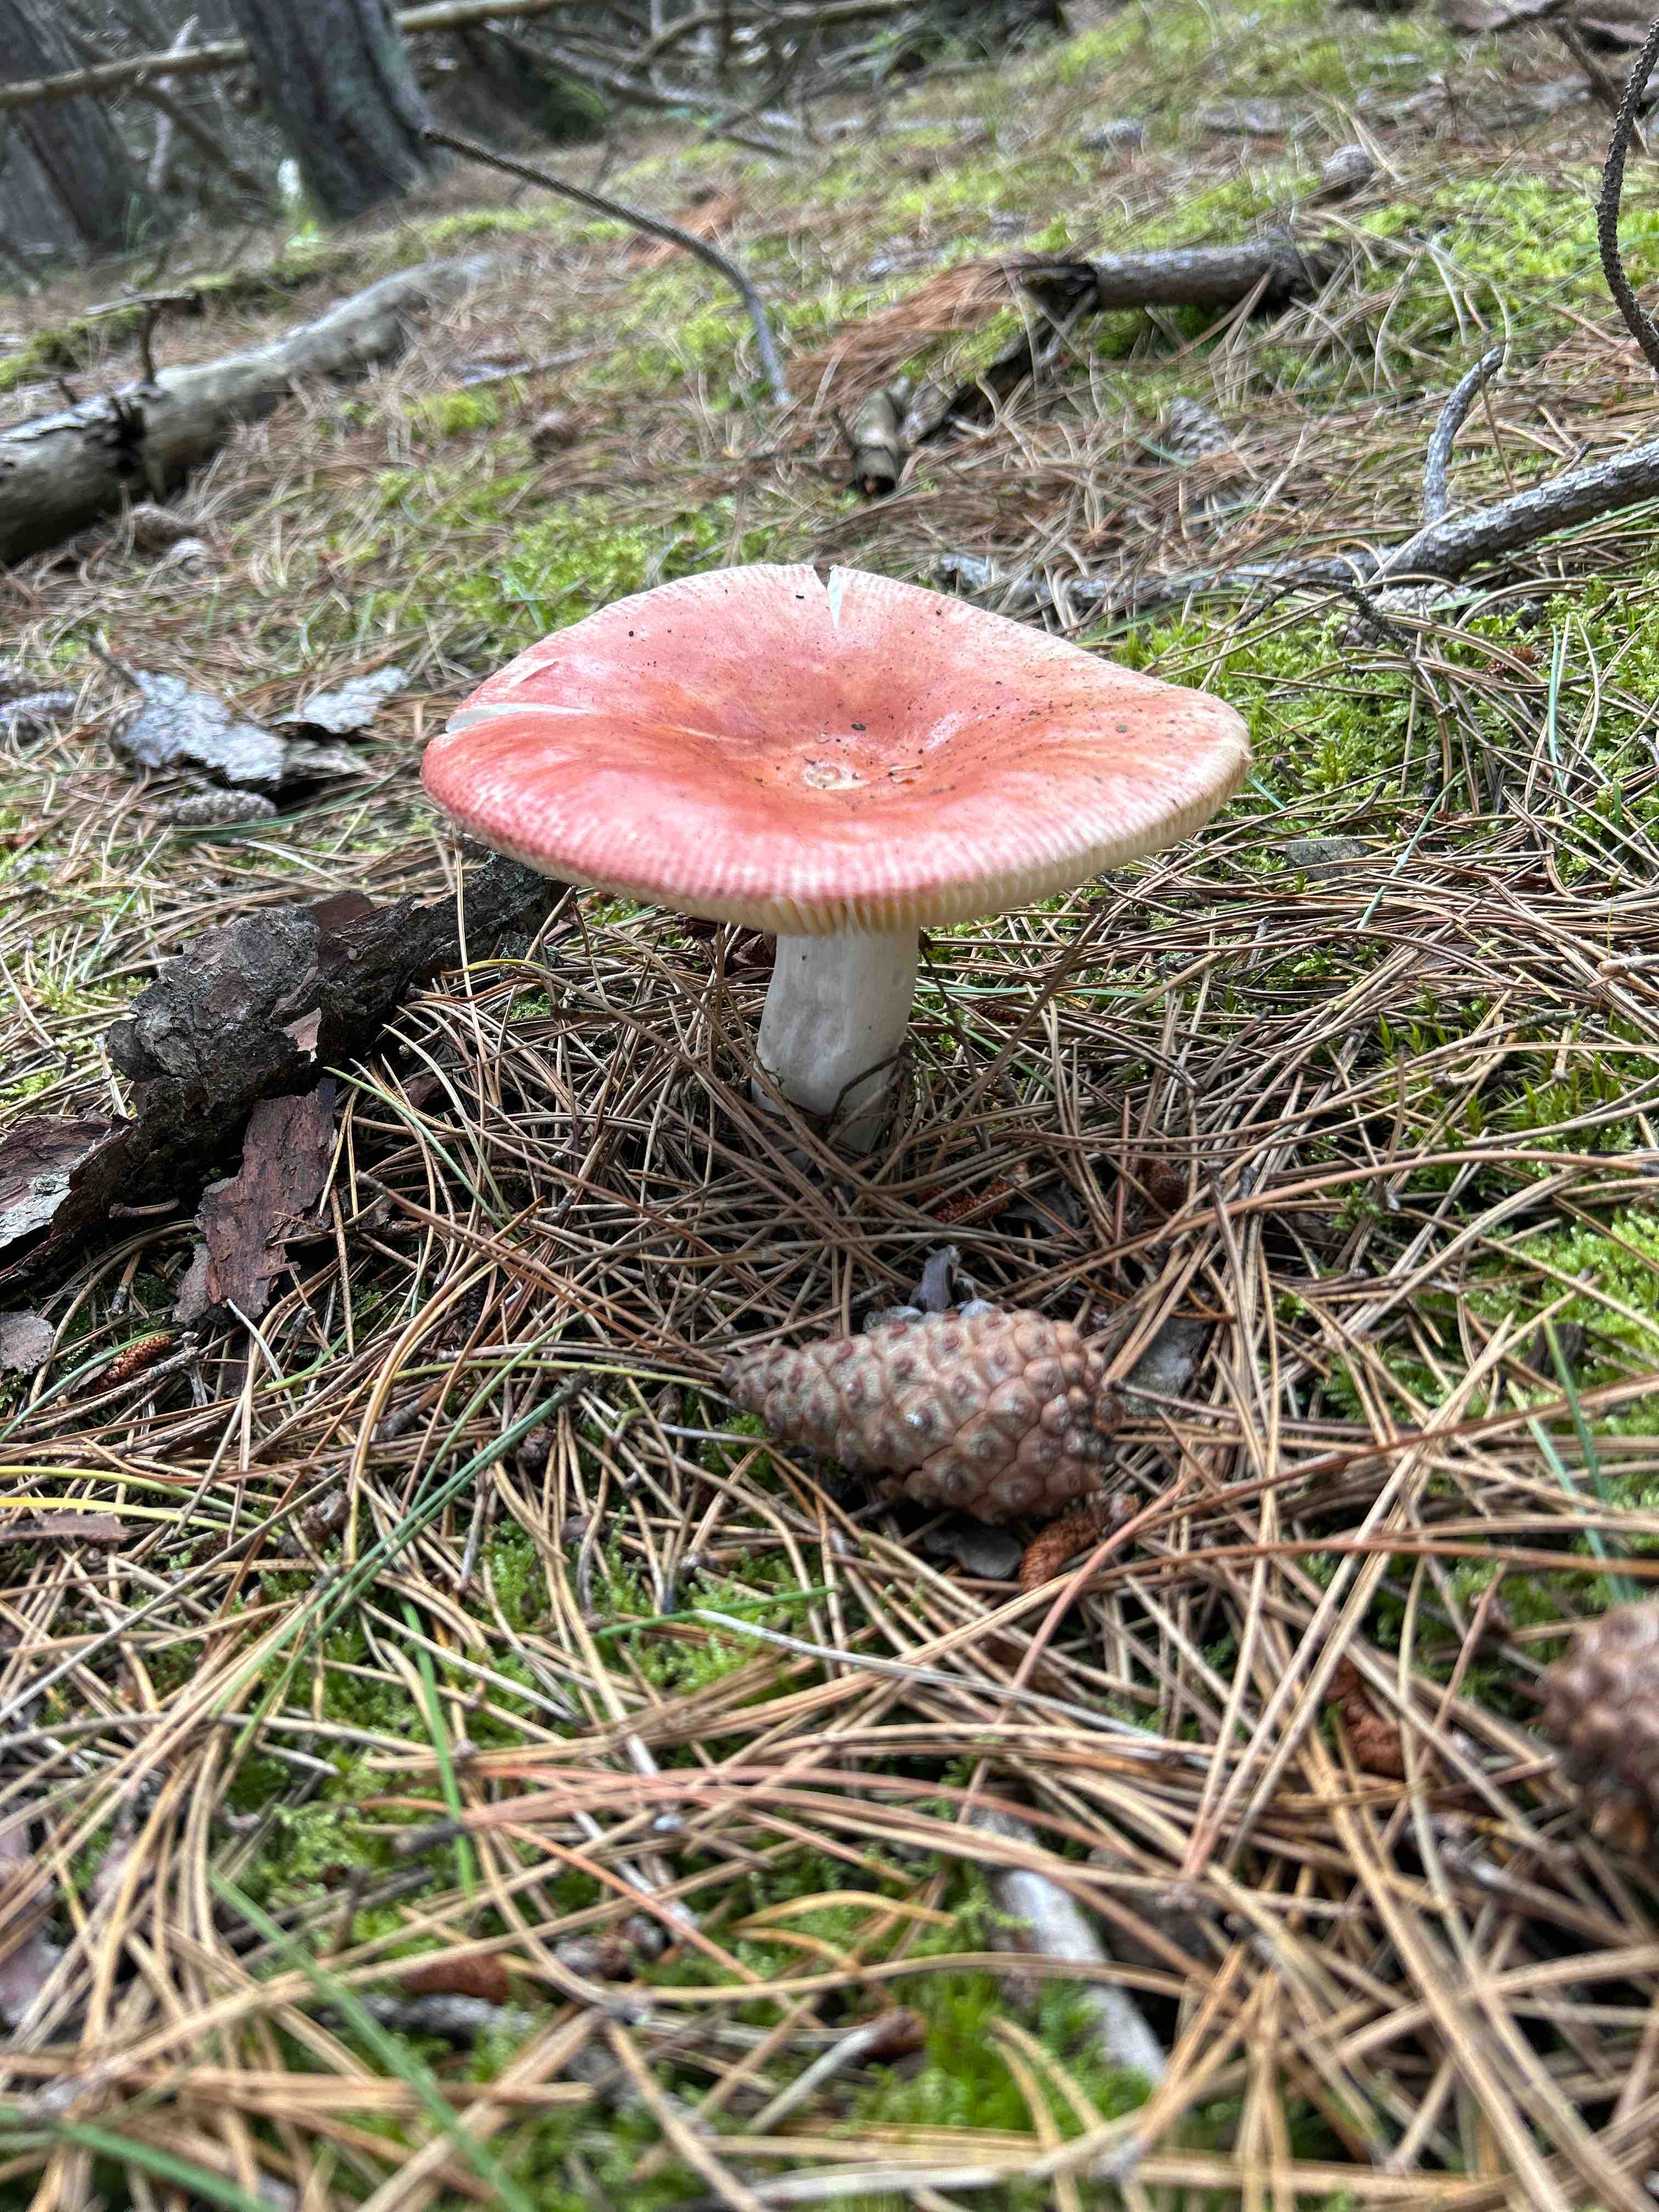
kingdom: Fungi
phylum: Basidiomycota
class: Agaricomycetes
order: Russulales
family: Russulaceae
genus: Russula
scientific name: Russula
